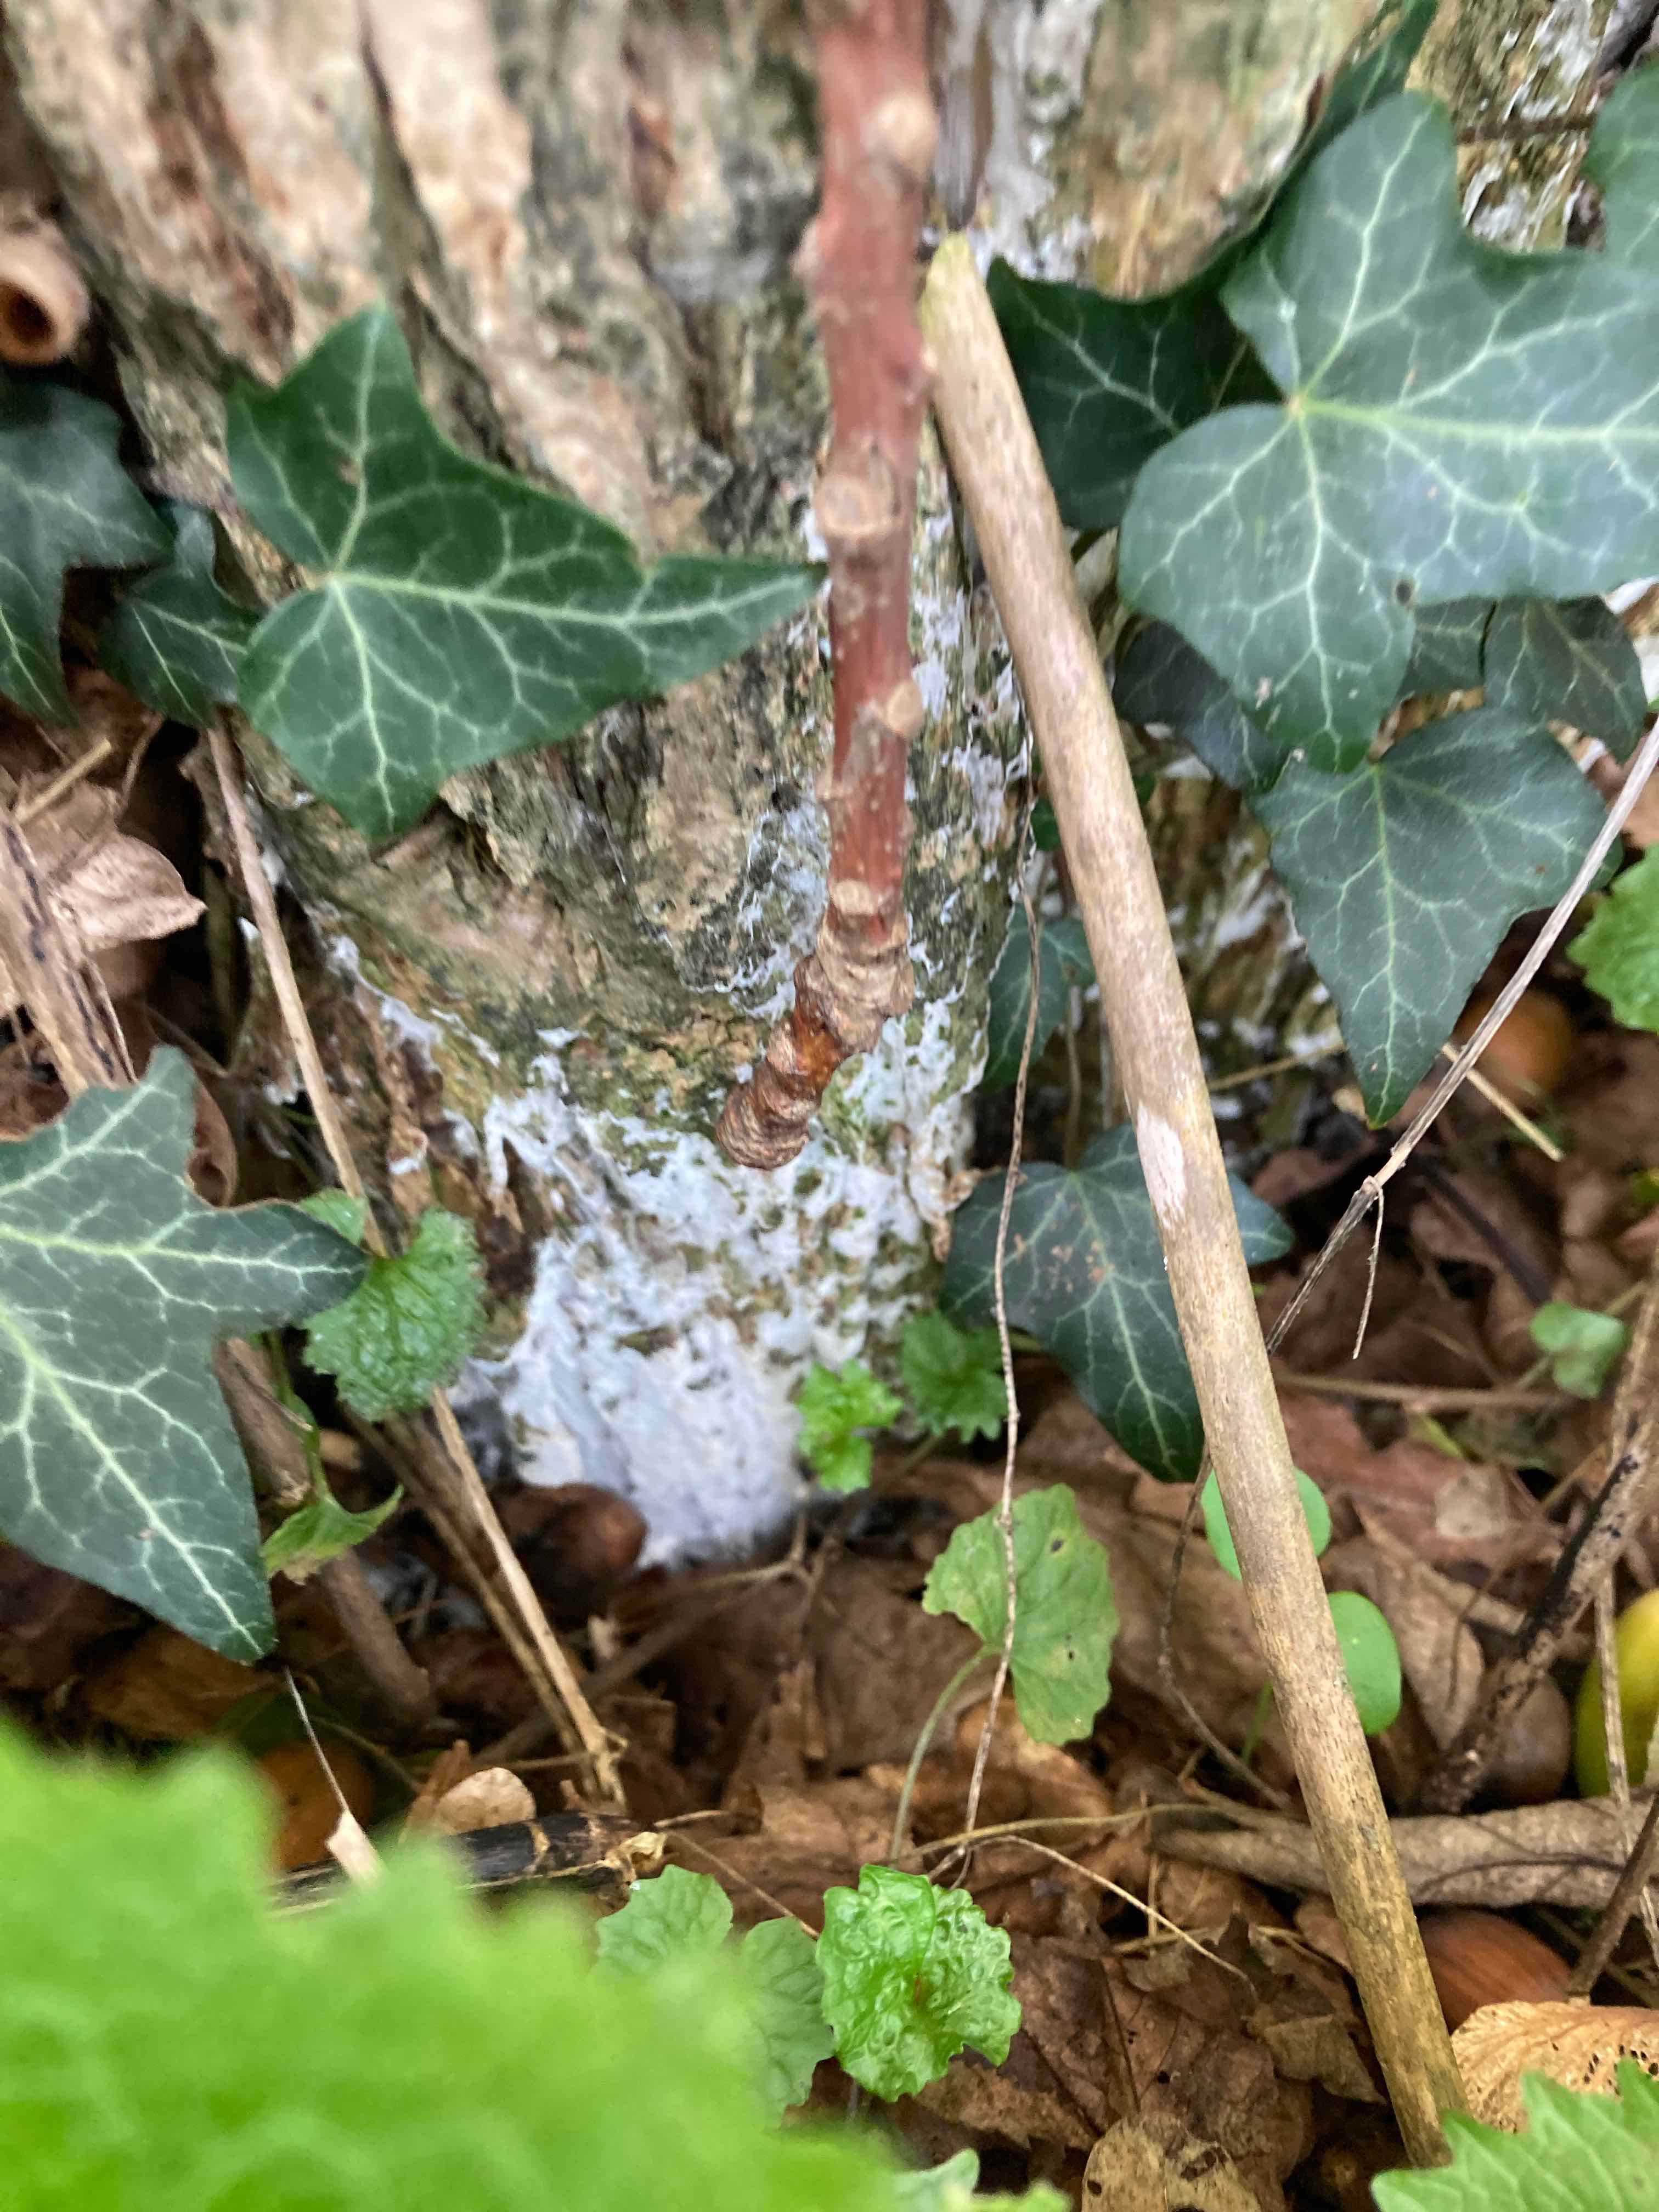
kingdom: Fungi
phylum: Basidiomycota
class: Agaricomycetes
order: Corticiales
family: Corticiaceae
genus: Lyomyces
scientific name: Lyomyces sambuci
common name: almindelig hyldehinde
